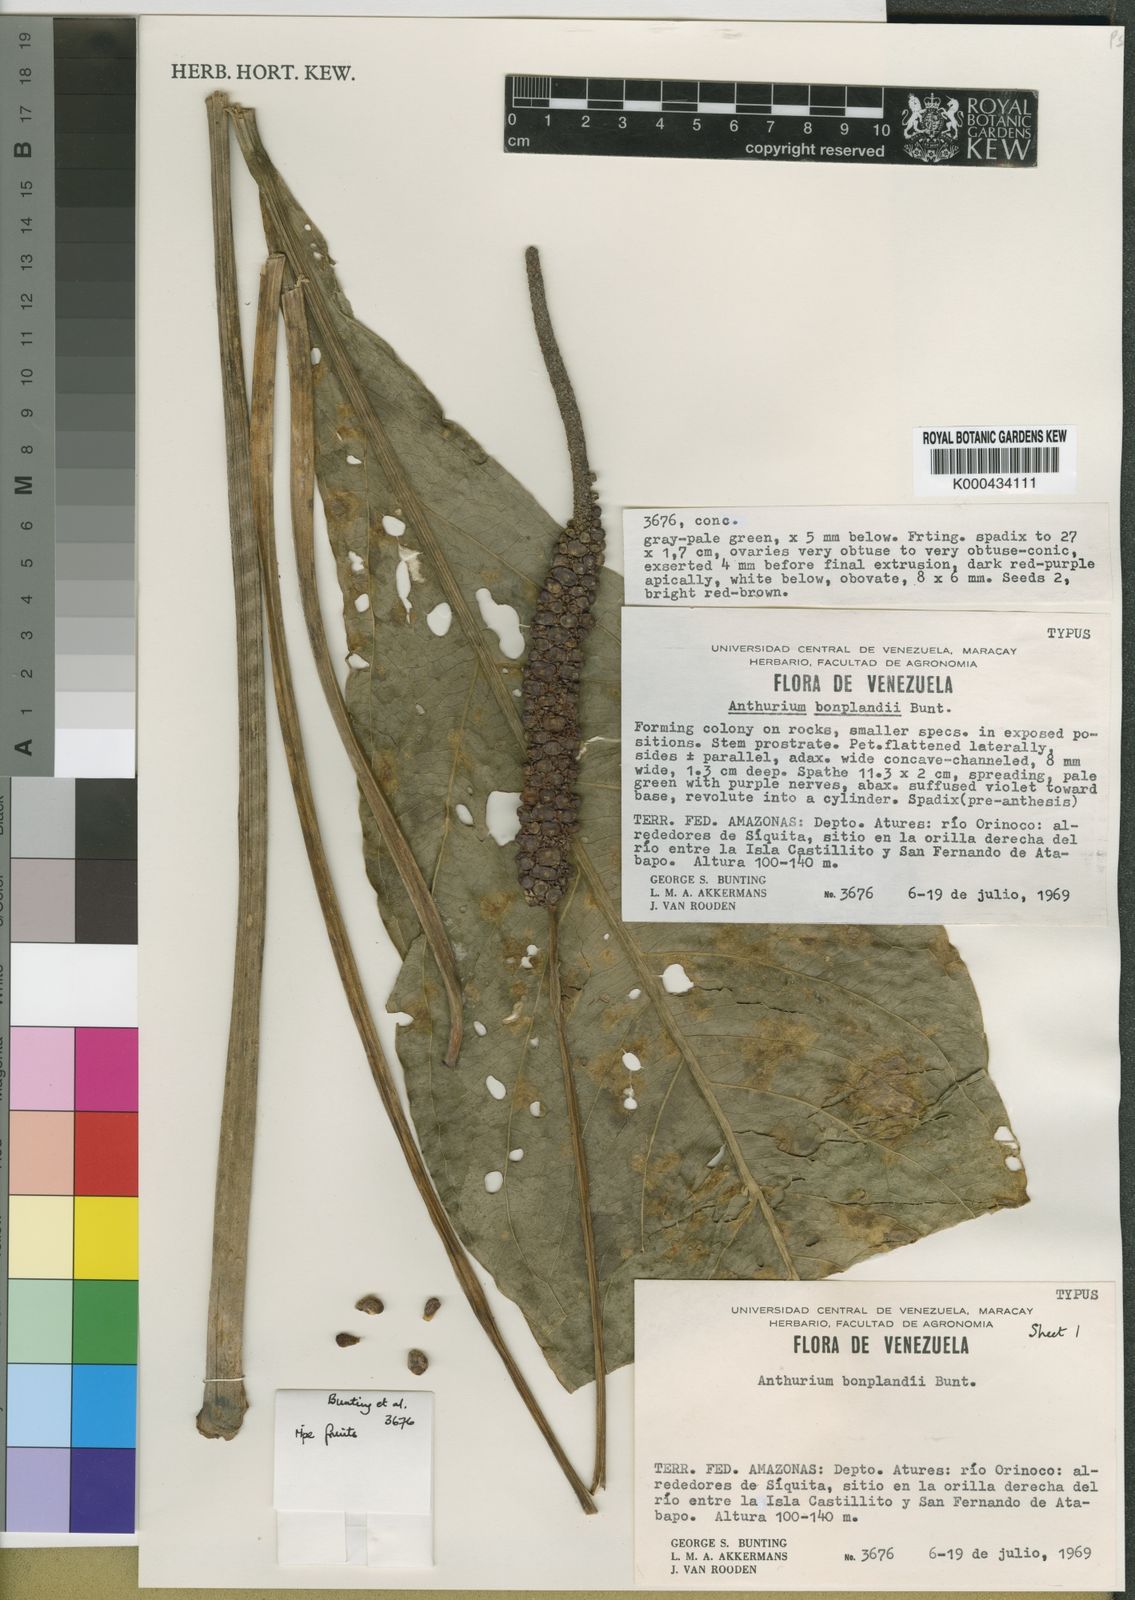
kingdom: Plantae
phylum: Tracheophyta
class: Liliopsida
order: Alismatales
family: Araceae
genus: Anthurium
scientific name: Anthurium bonplandii
